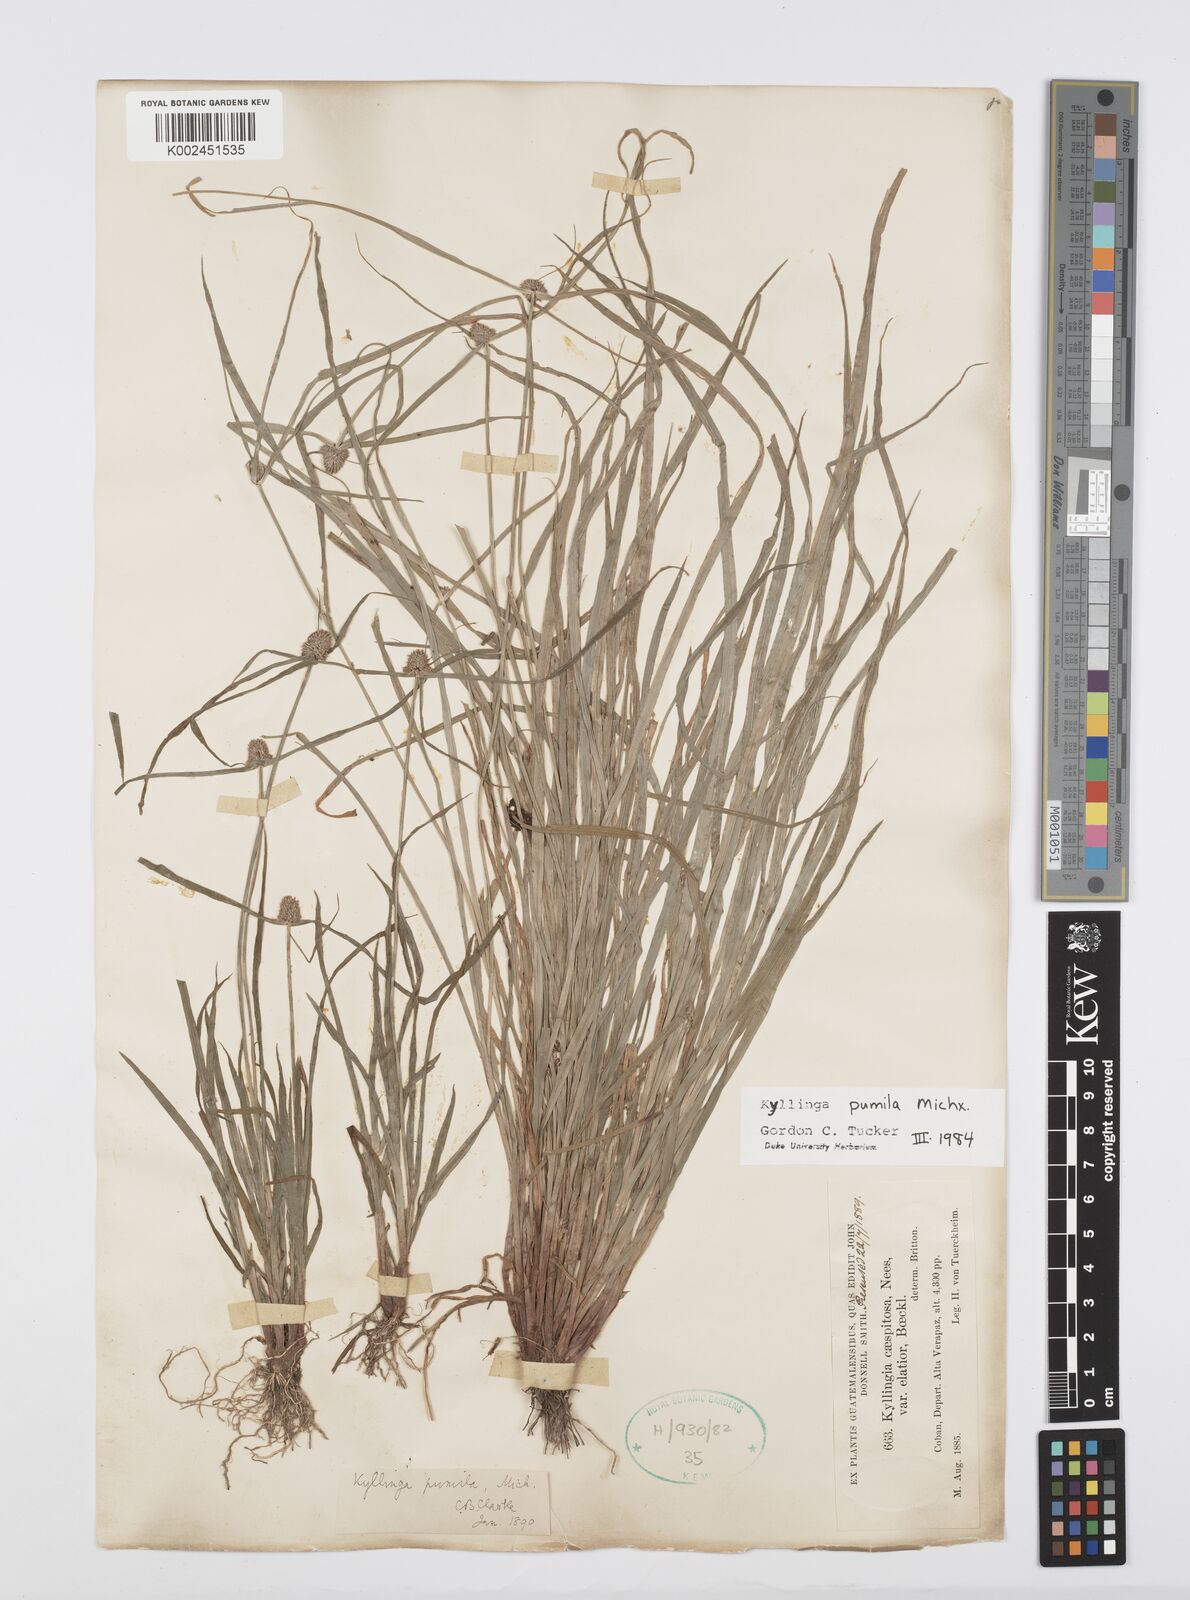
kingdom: Plantae
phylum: Tracheophyta
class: Liliopsida
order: Poales
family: Cyperaceae
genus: Cyperus
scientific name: Cyperus
